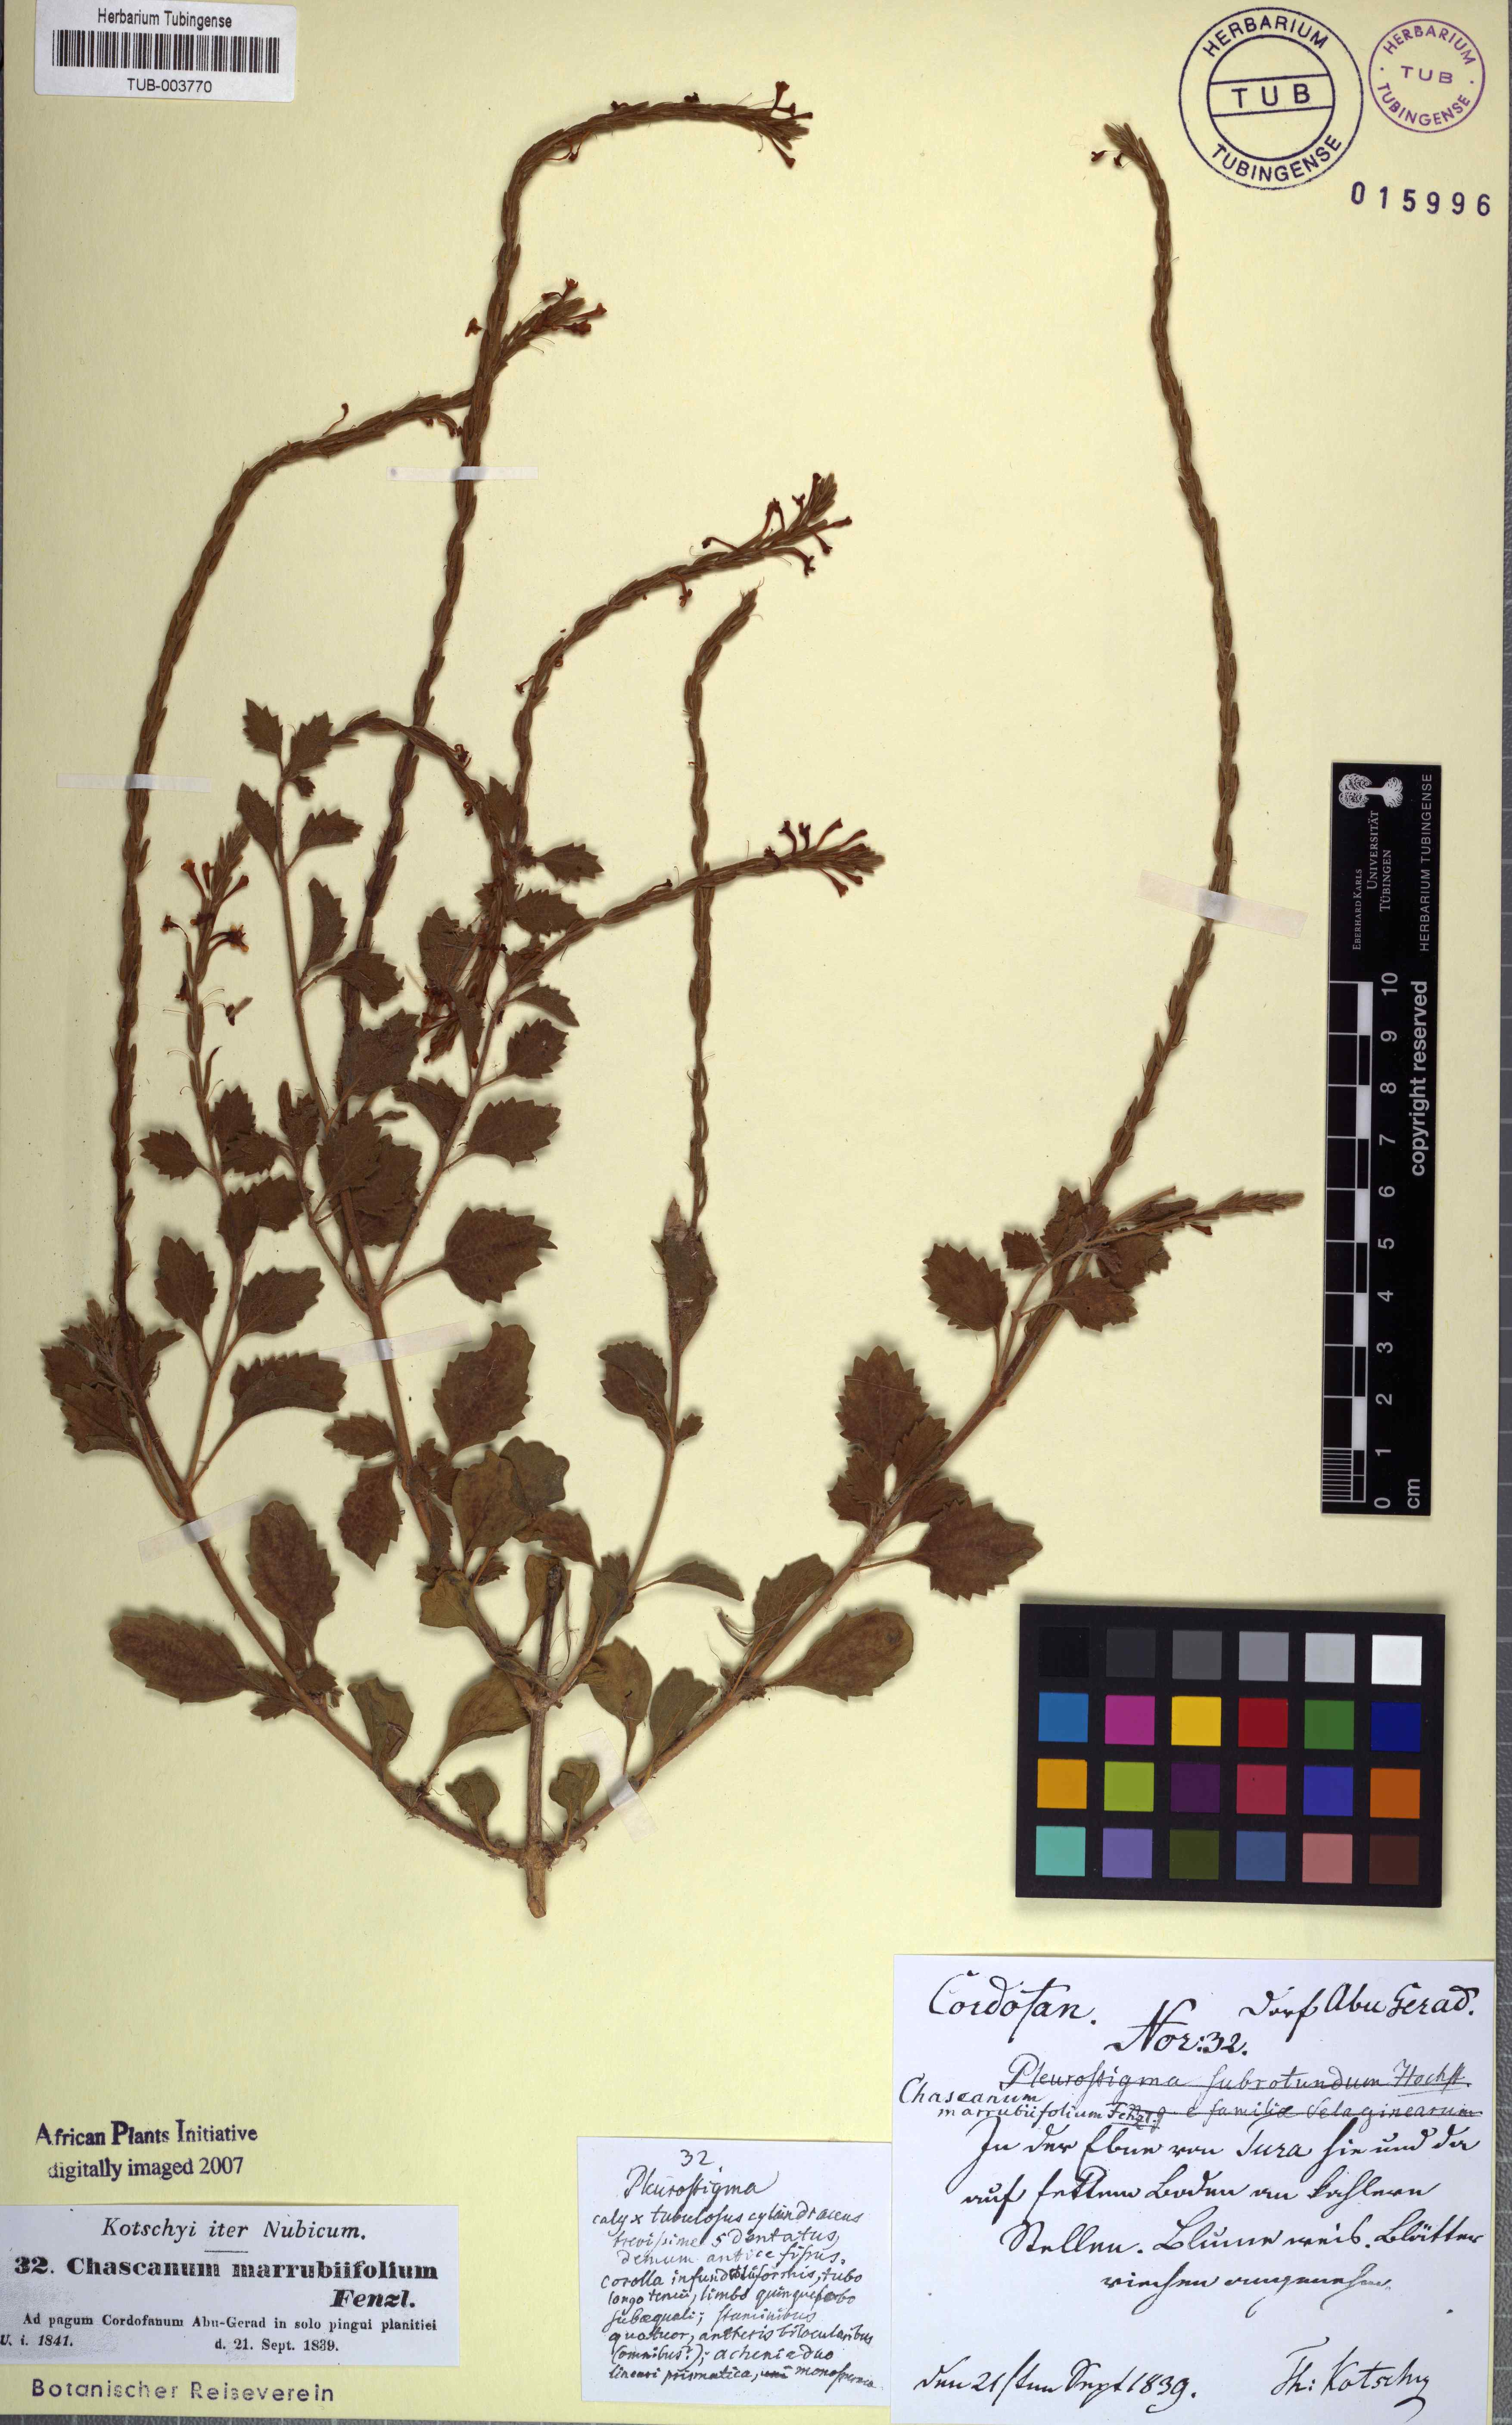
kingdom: Plantae
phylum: Tracheophyta
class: Magnoliopsida
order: Lamiales
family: Verbenaceae
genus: Chascanum
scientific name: Chascanum marrubiifolium
